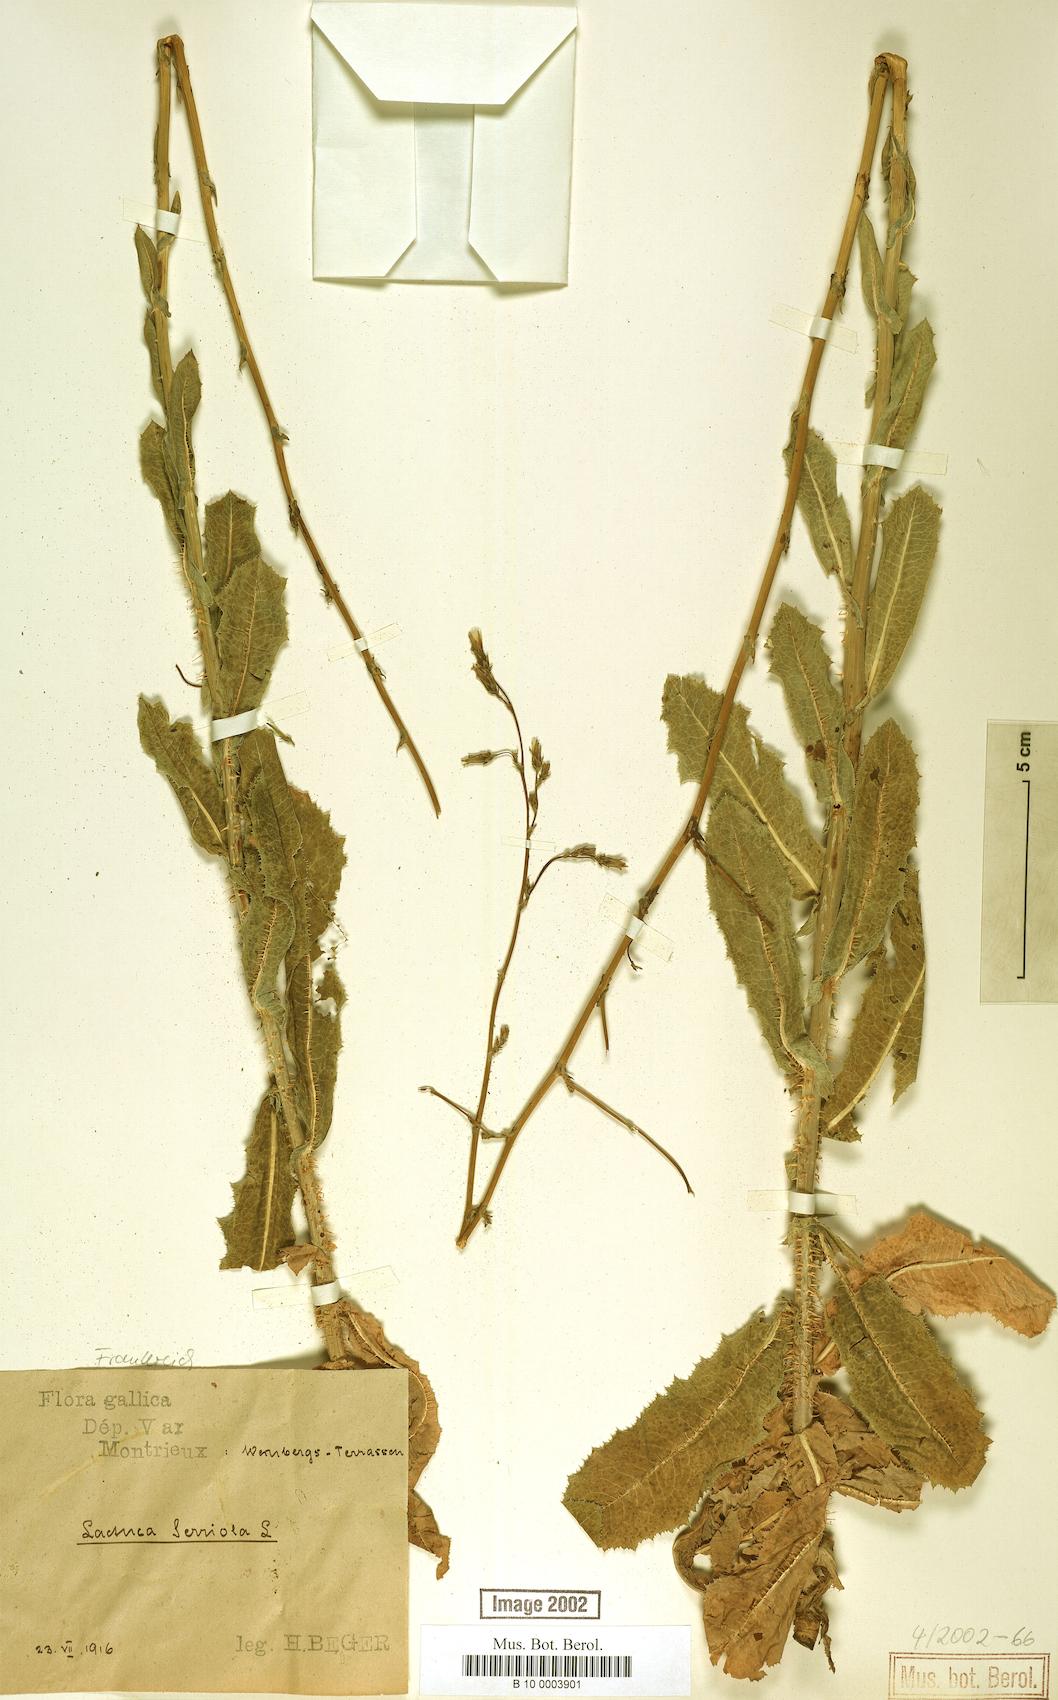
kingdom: Plantae
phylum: Tracheophyta
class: Magnoliopsida
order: Asterales
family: Asteraceae
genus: Lactuca
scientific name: Lactuca serriola
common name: Prickly lettuce
